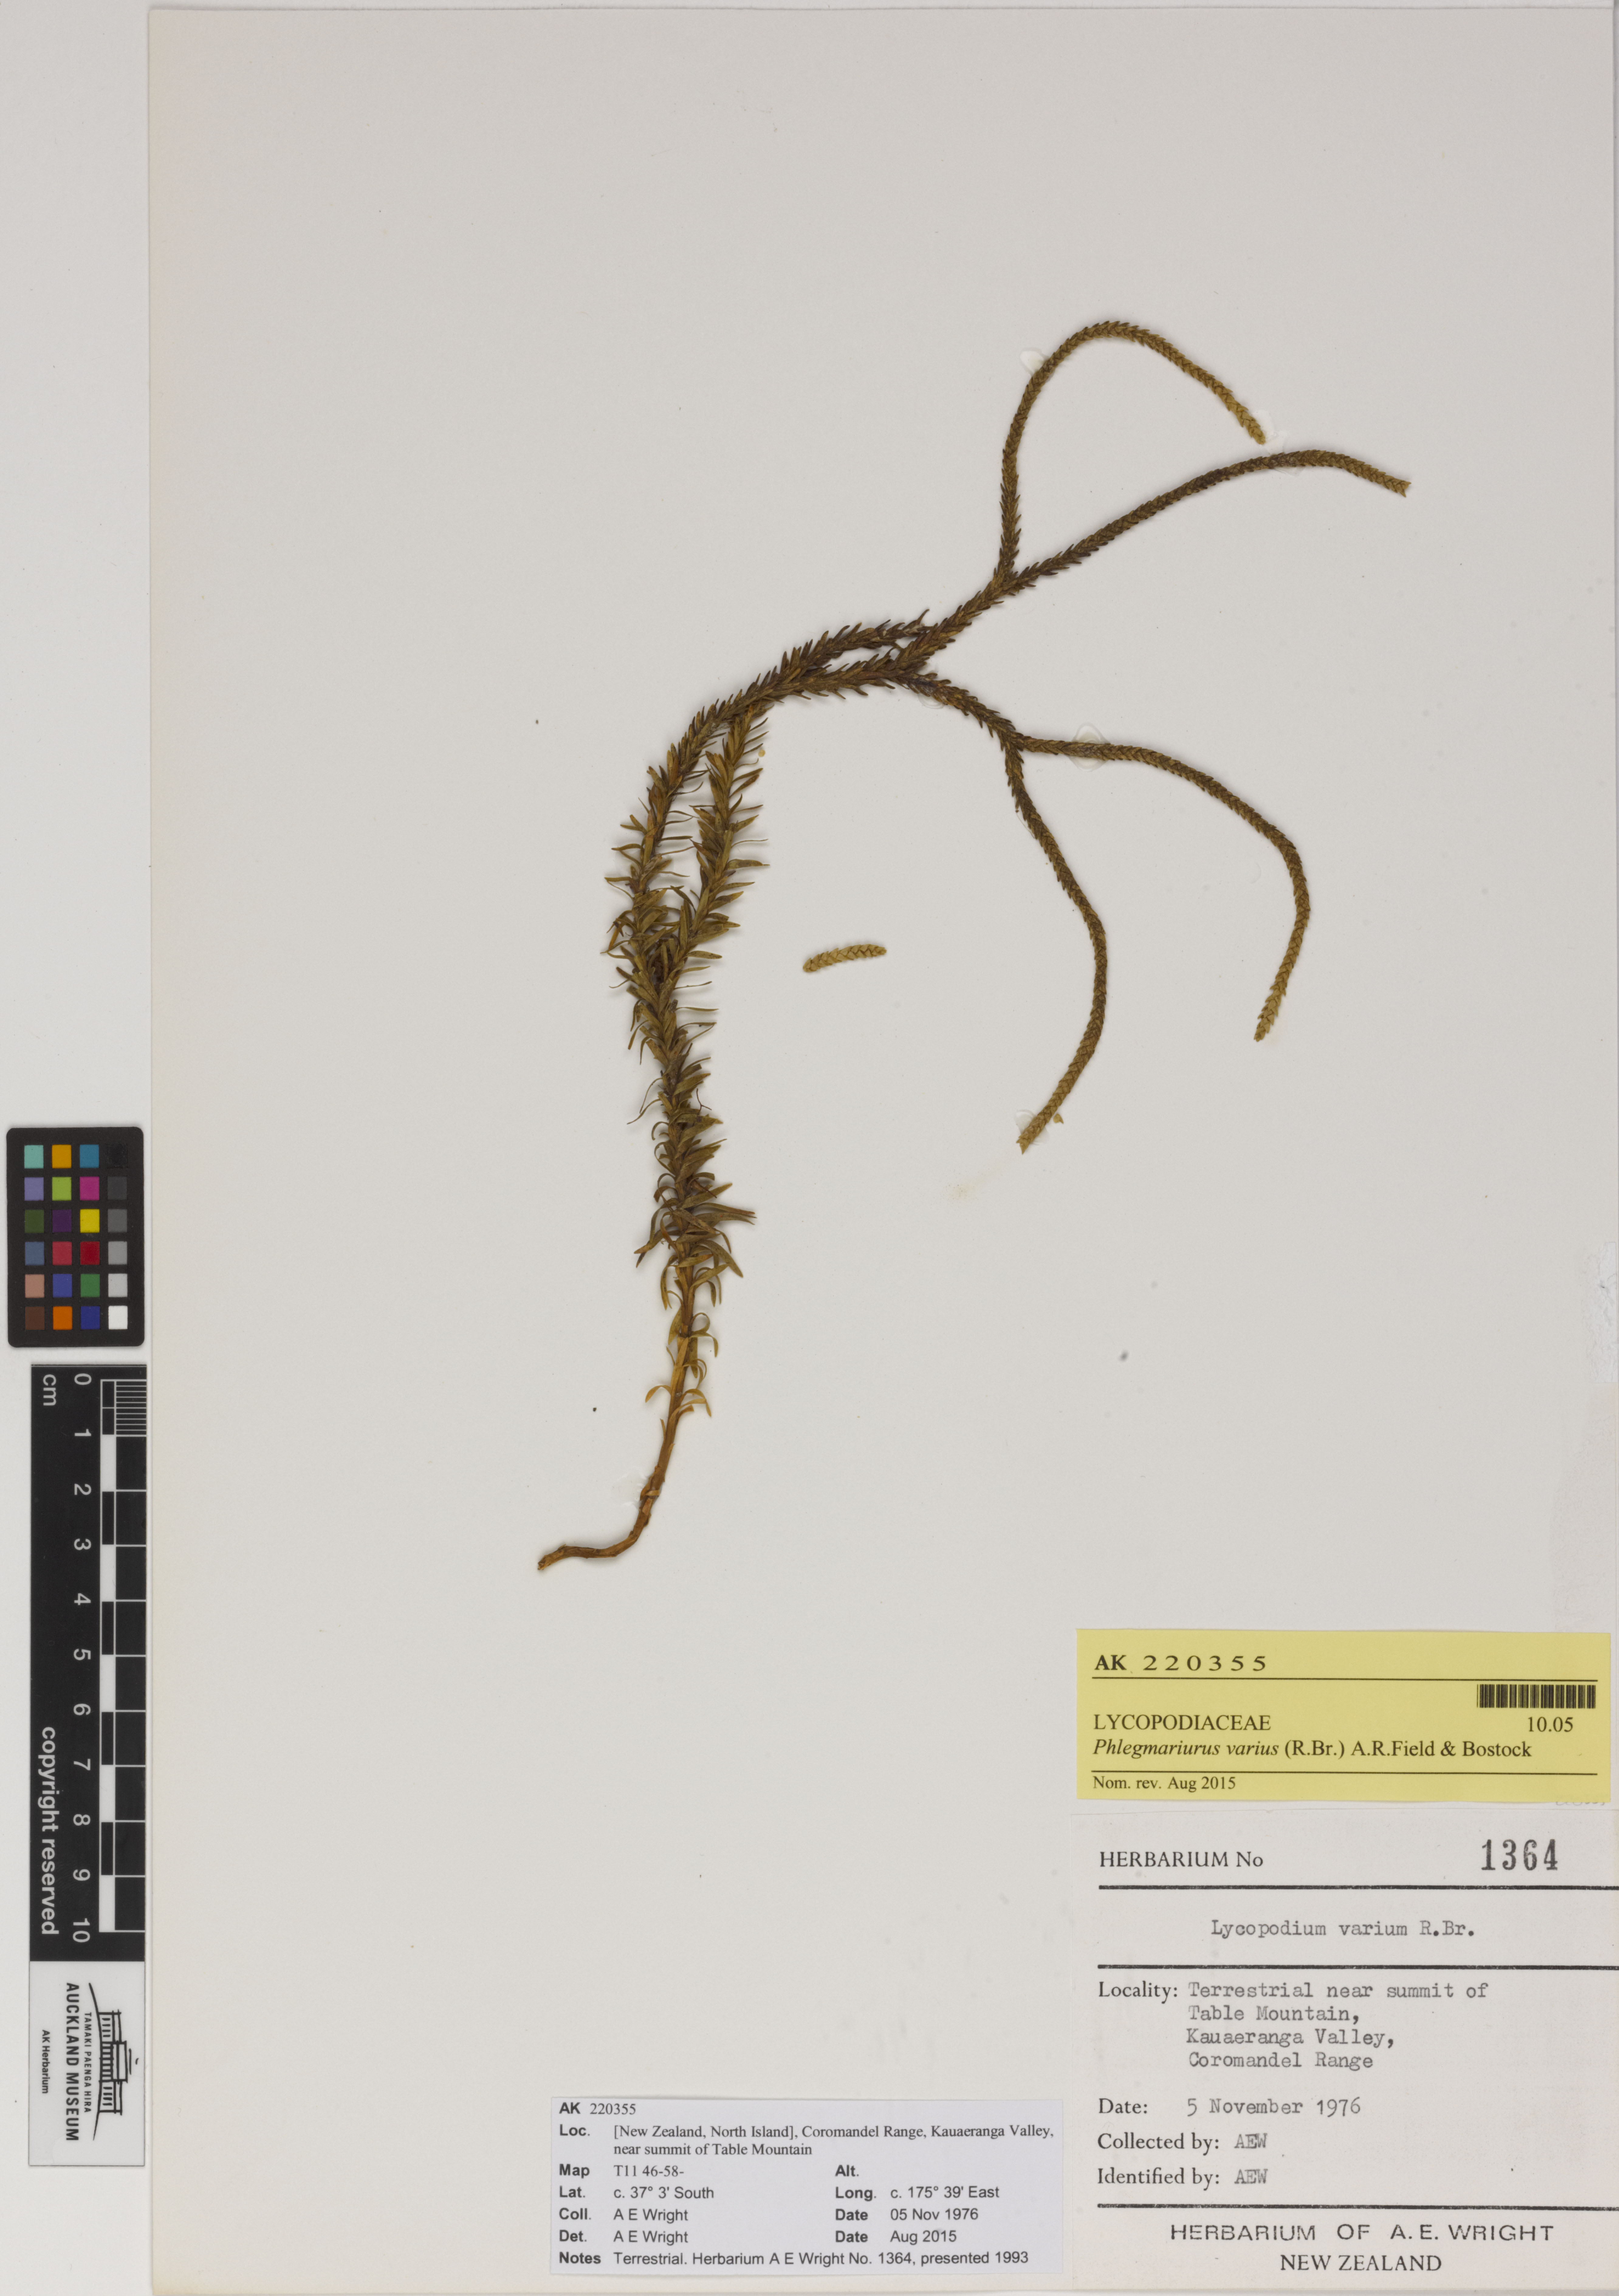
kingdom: Plantae
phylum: Tracheophyta
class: Lycopodiopsida
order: Lycopodiales
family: Lycopodiaceae
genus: Phlegmariurus
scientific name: Phlegmariurus varius
